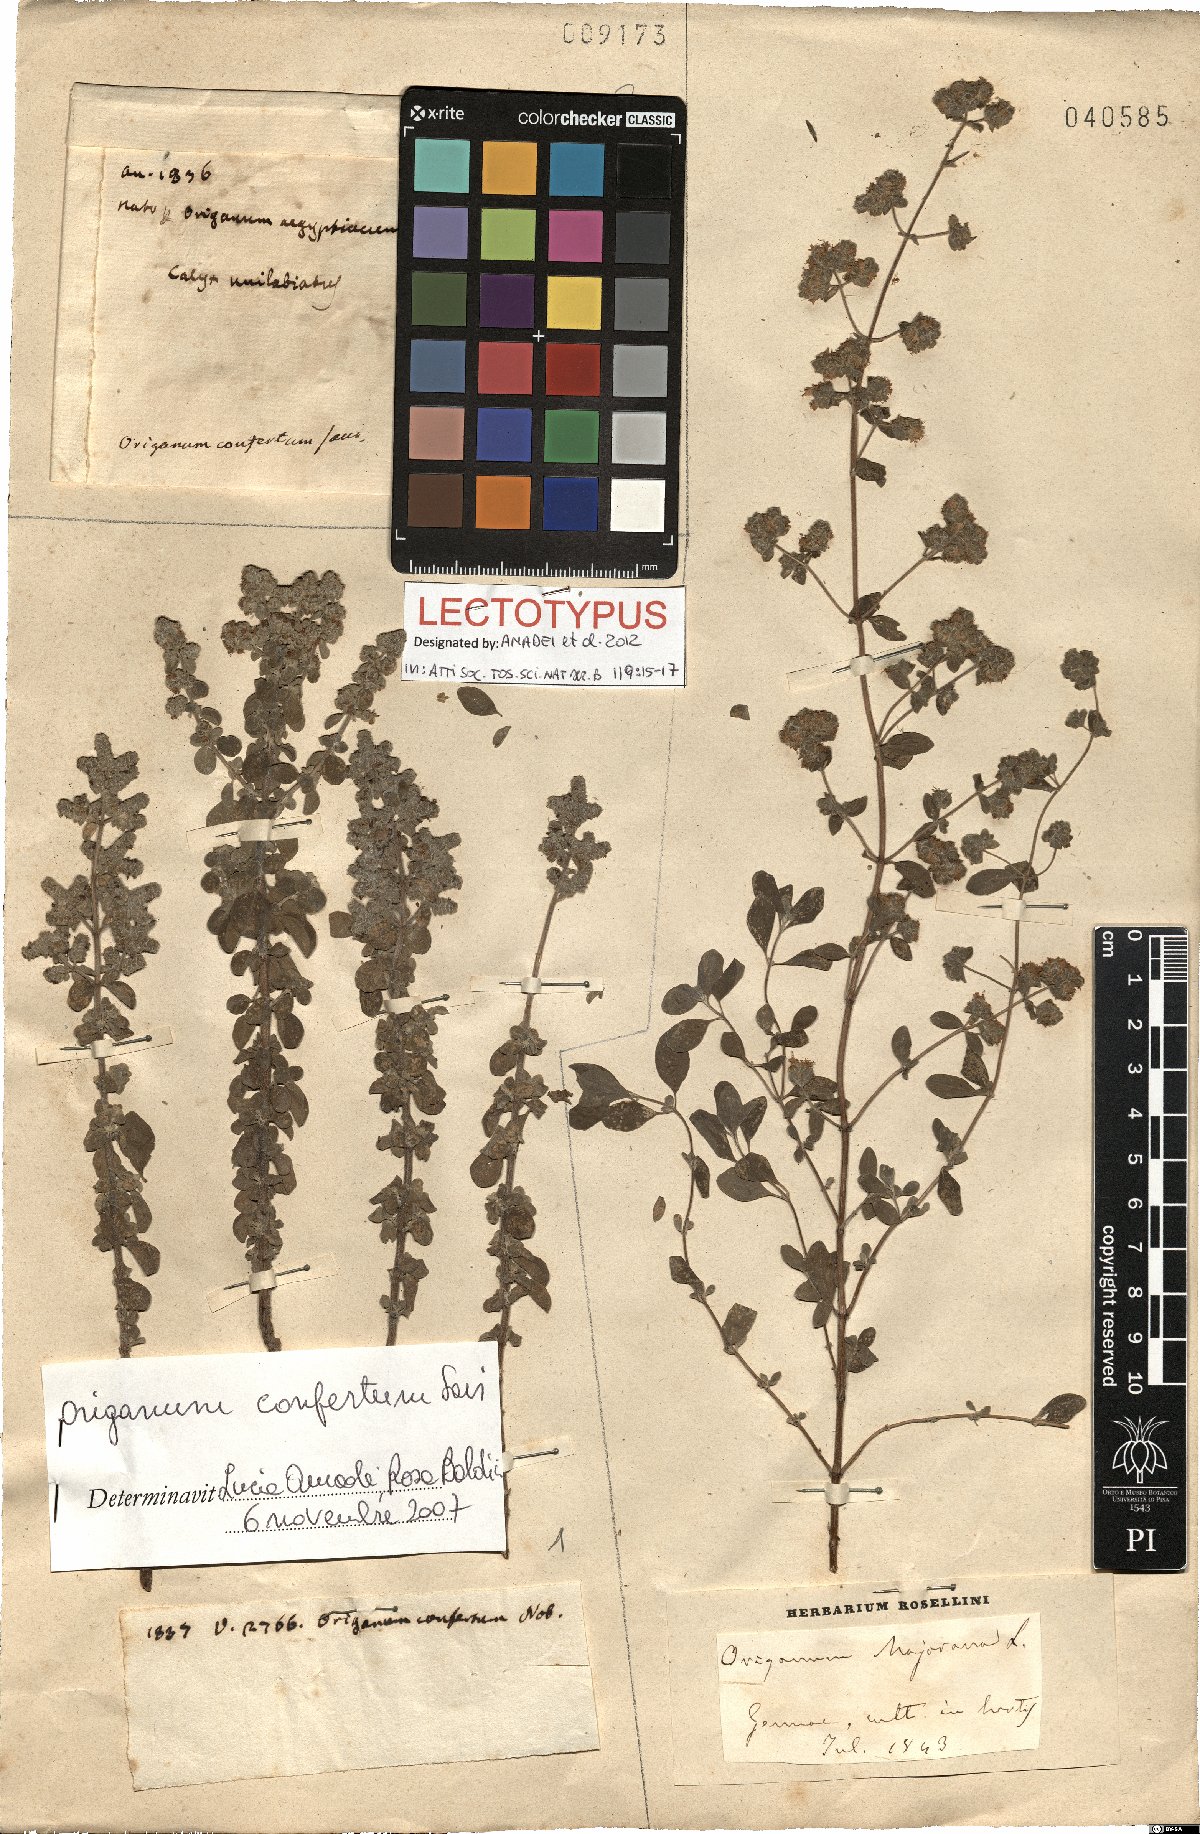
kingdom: Plantae
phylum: Tracheophyta
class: Magnoliopsida
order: Lamiales
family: Lamiaceae
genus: Origanum
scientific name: Origanum majorana
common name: Sweet marjoram
